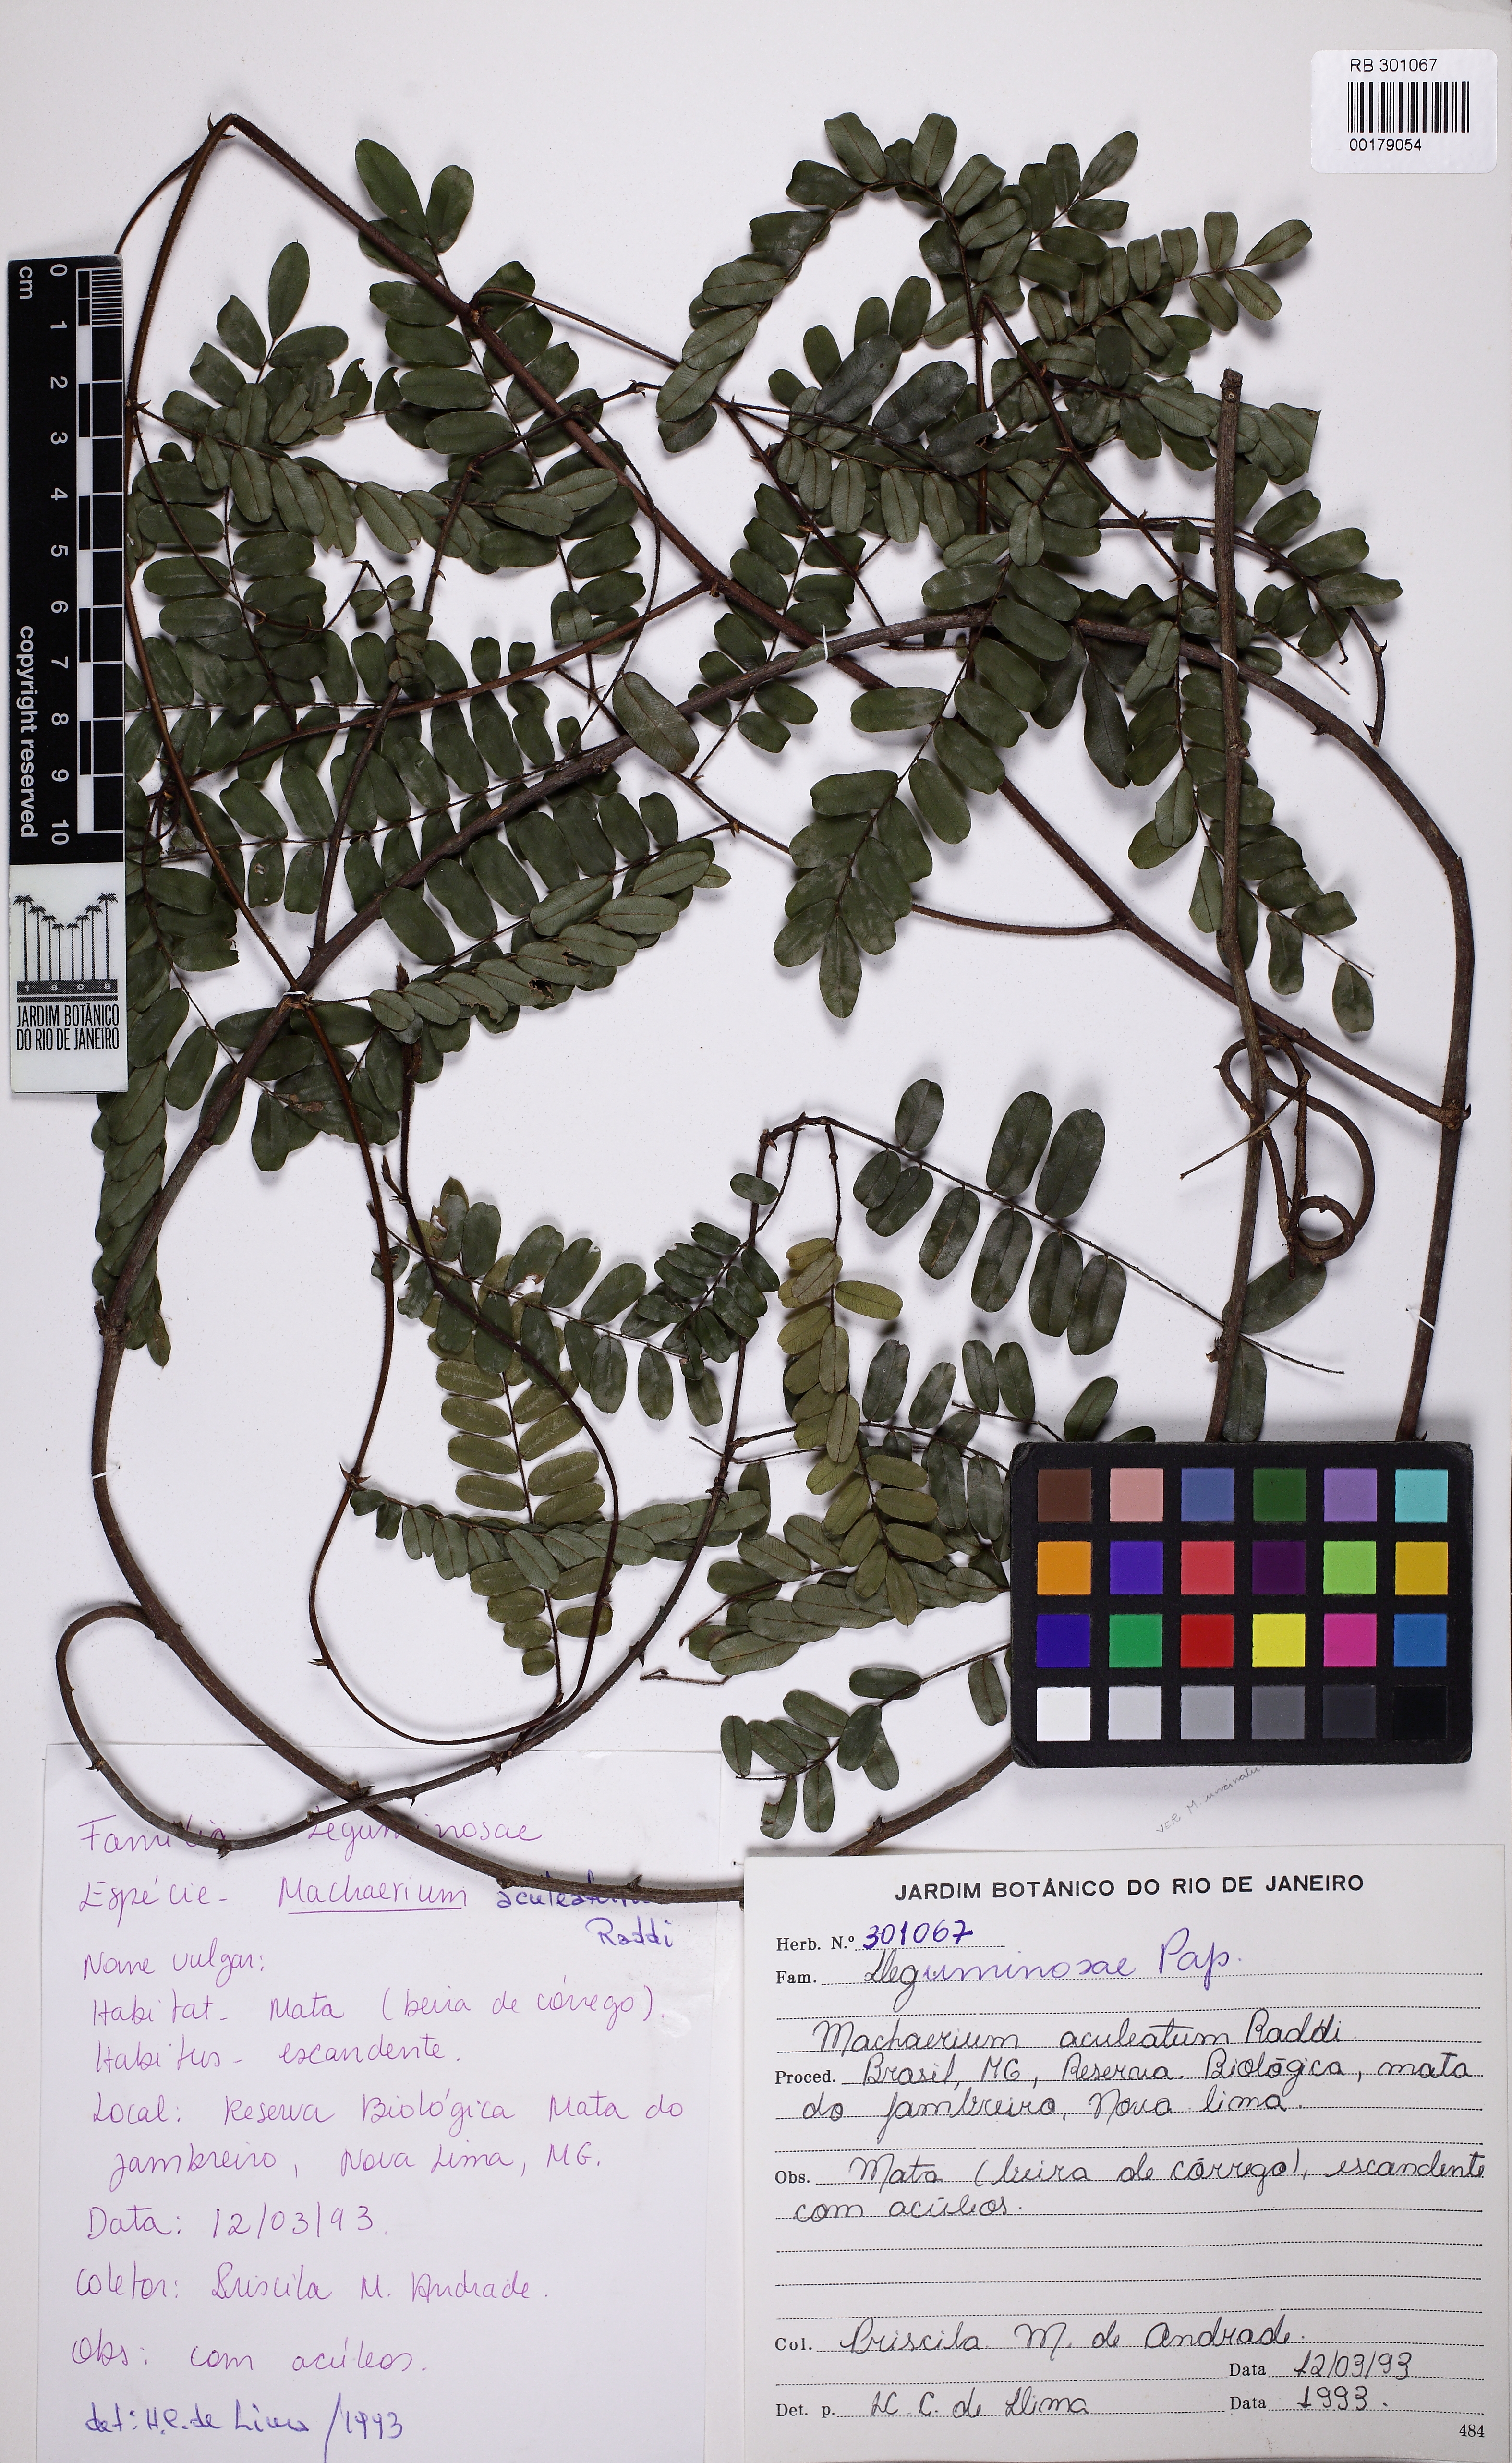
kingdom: Plantae
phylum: Tracheophyta
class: Magnoliopsida
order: Fabales
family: Fabaceae
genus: Machaerium
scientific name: Machaerium aculeatum
